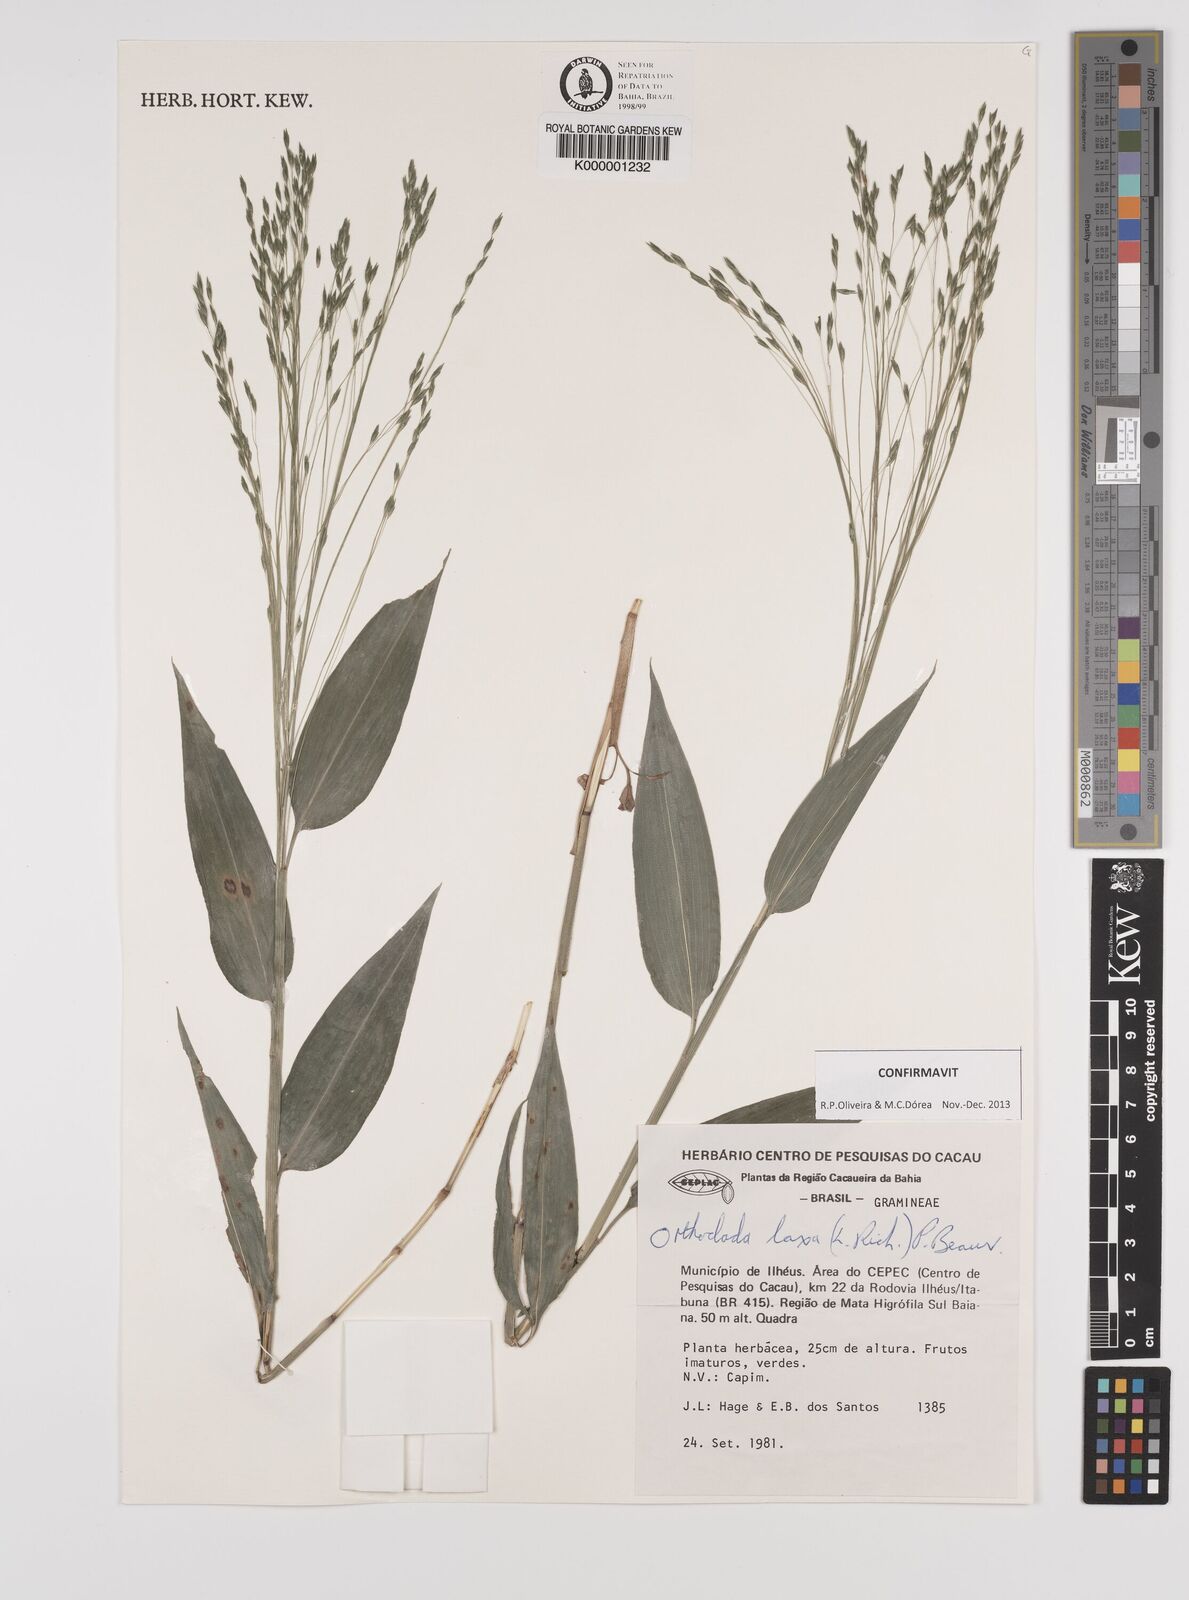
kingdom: Plantae
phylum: Tracheophyta
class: Liliopsida
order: Poales
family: Poaceae
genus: Orthoclada
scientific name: Orthoclada laxa
